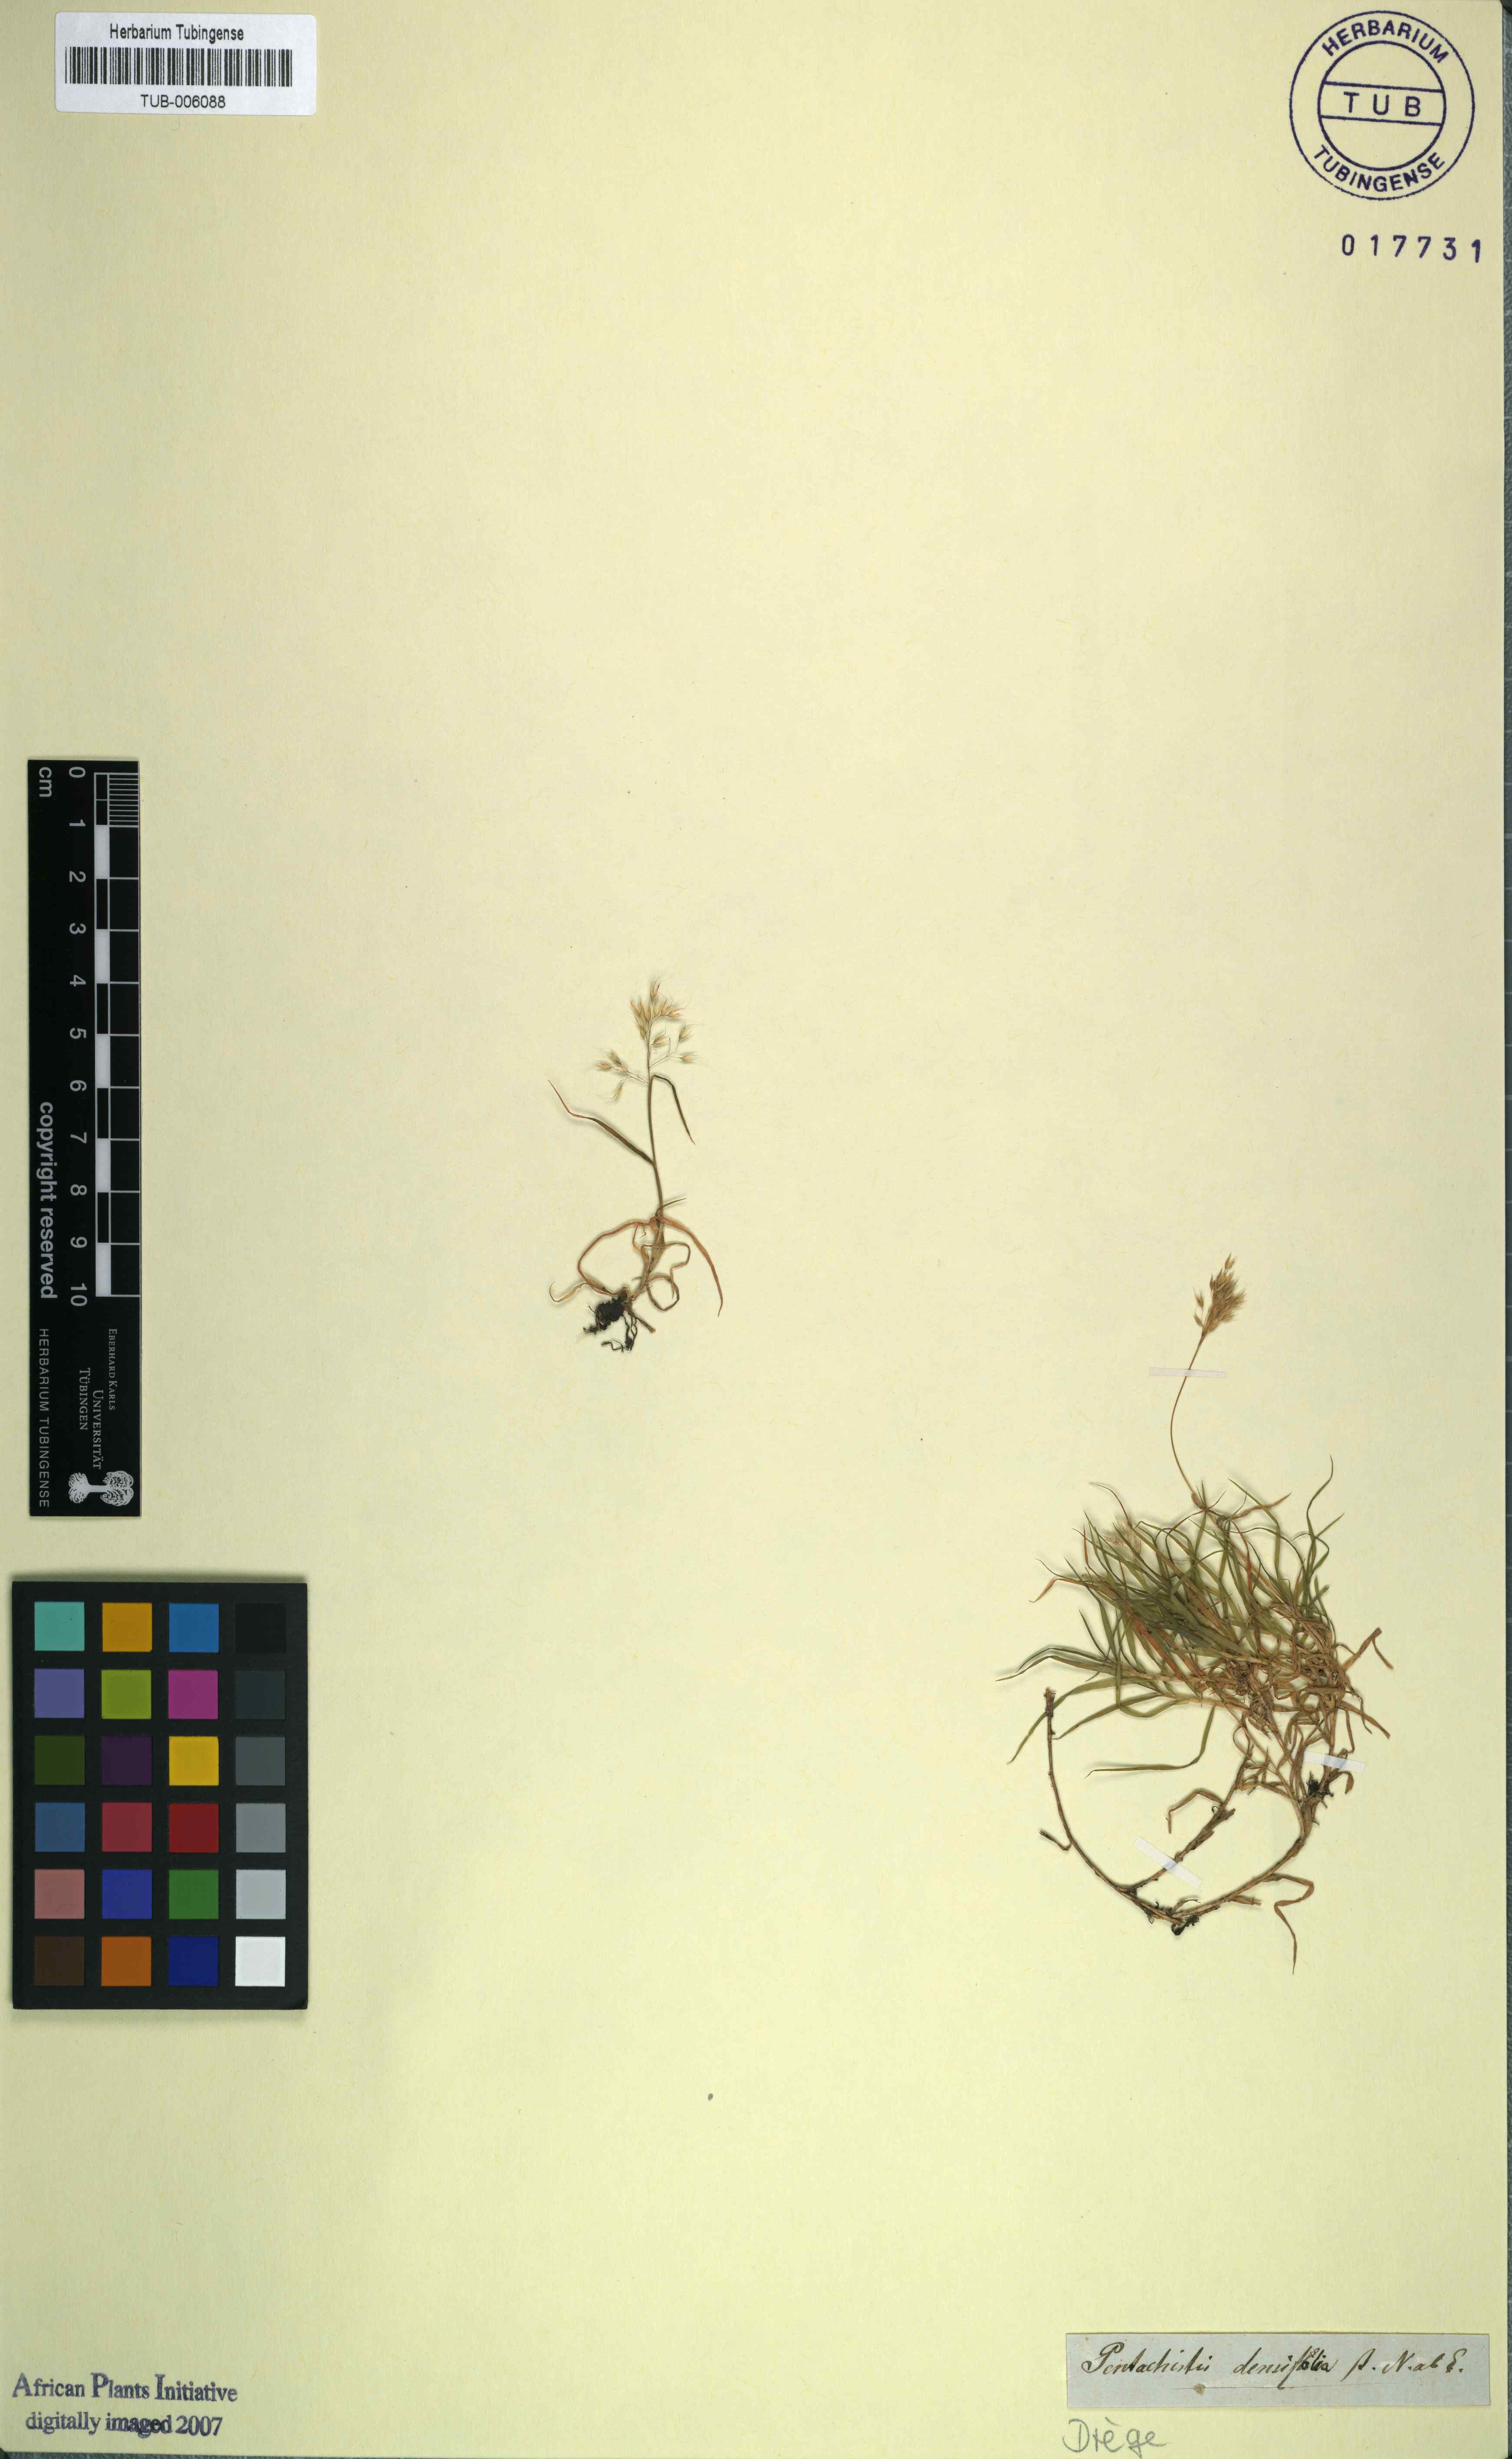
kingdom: Plantae
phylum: Tracheophyta
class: Liliopsida
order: Poales
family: Poaceae
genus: Pentameris
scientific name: Pentameris densifolia
